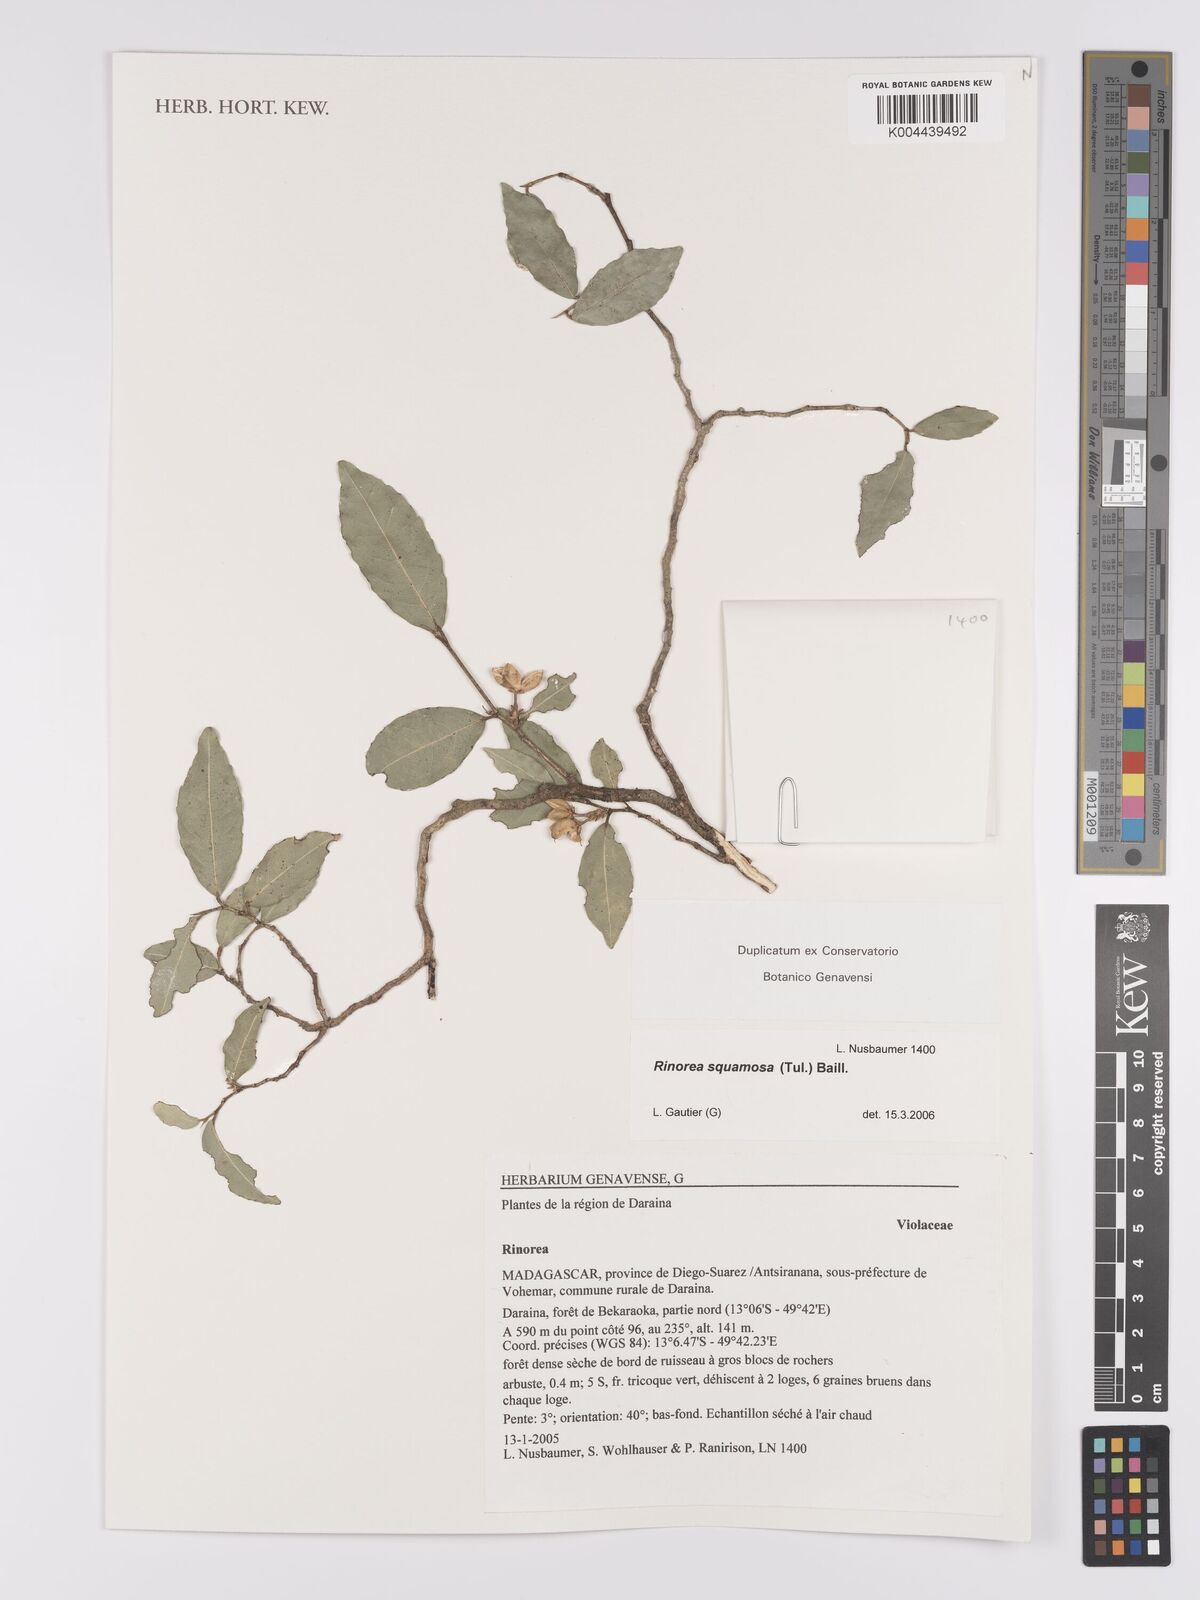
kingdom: Plantae
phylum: Tracheophyta
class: Magnoliopsida
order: Malpighiales
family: Violaceae
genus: Rinorea
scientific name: Rinorea squamosa
